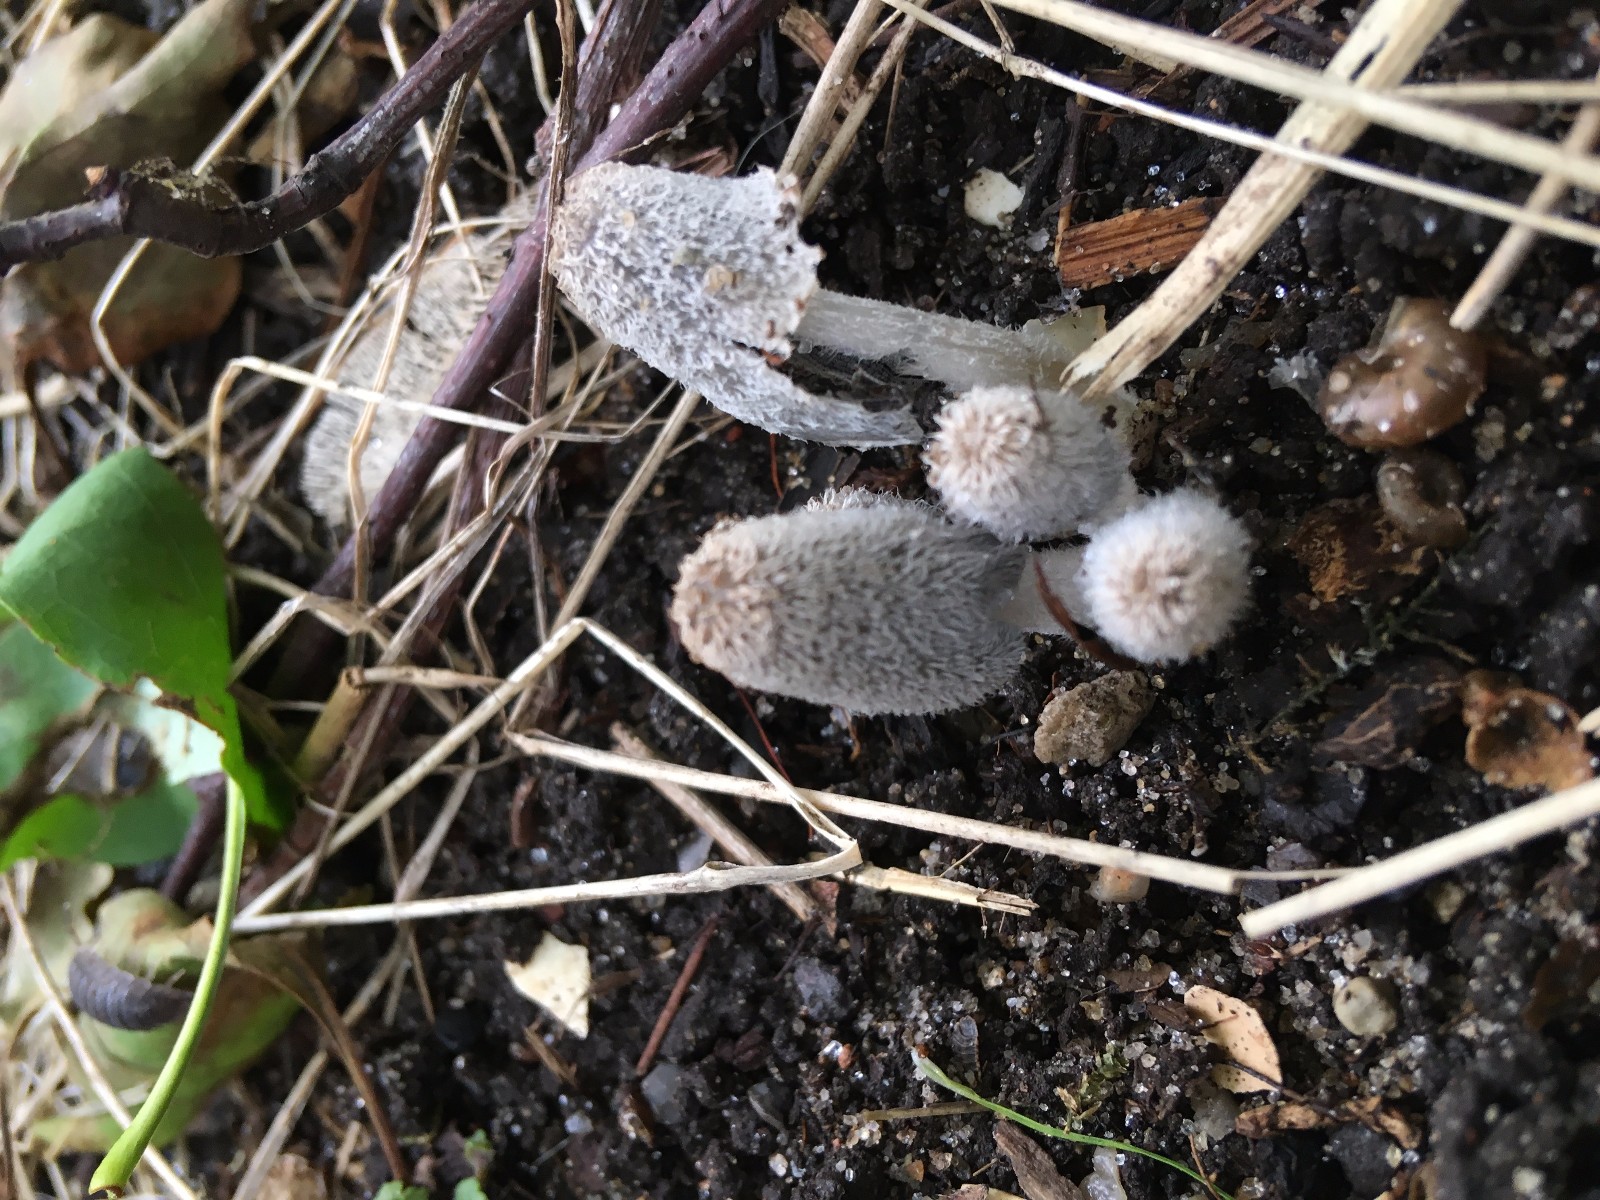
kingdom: Fungi
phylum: Basidiomycota
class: Agaricomycetes
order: Agaricales
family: Psathyrellaceae
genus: Coprinopsis
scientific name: Coprinopsis lagopus
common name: dunstokket blækhat
